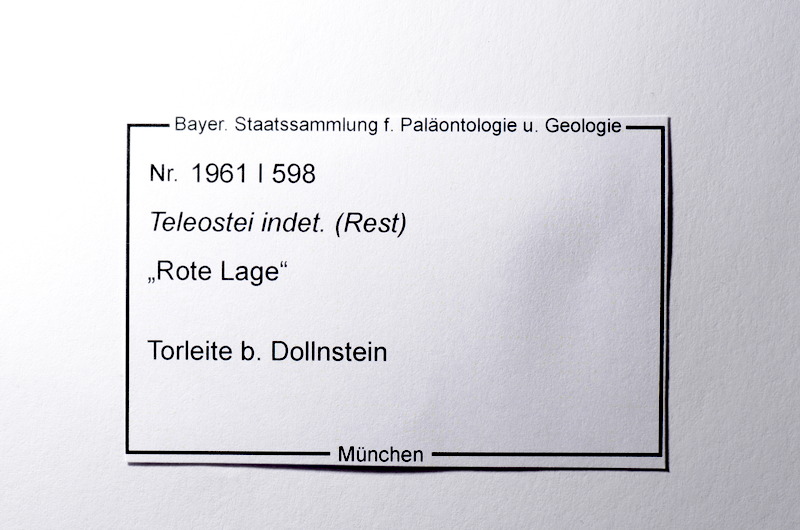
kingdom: Animalia
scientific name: Animalia
